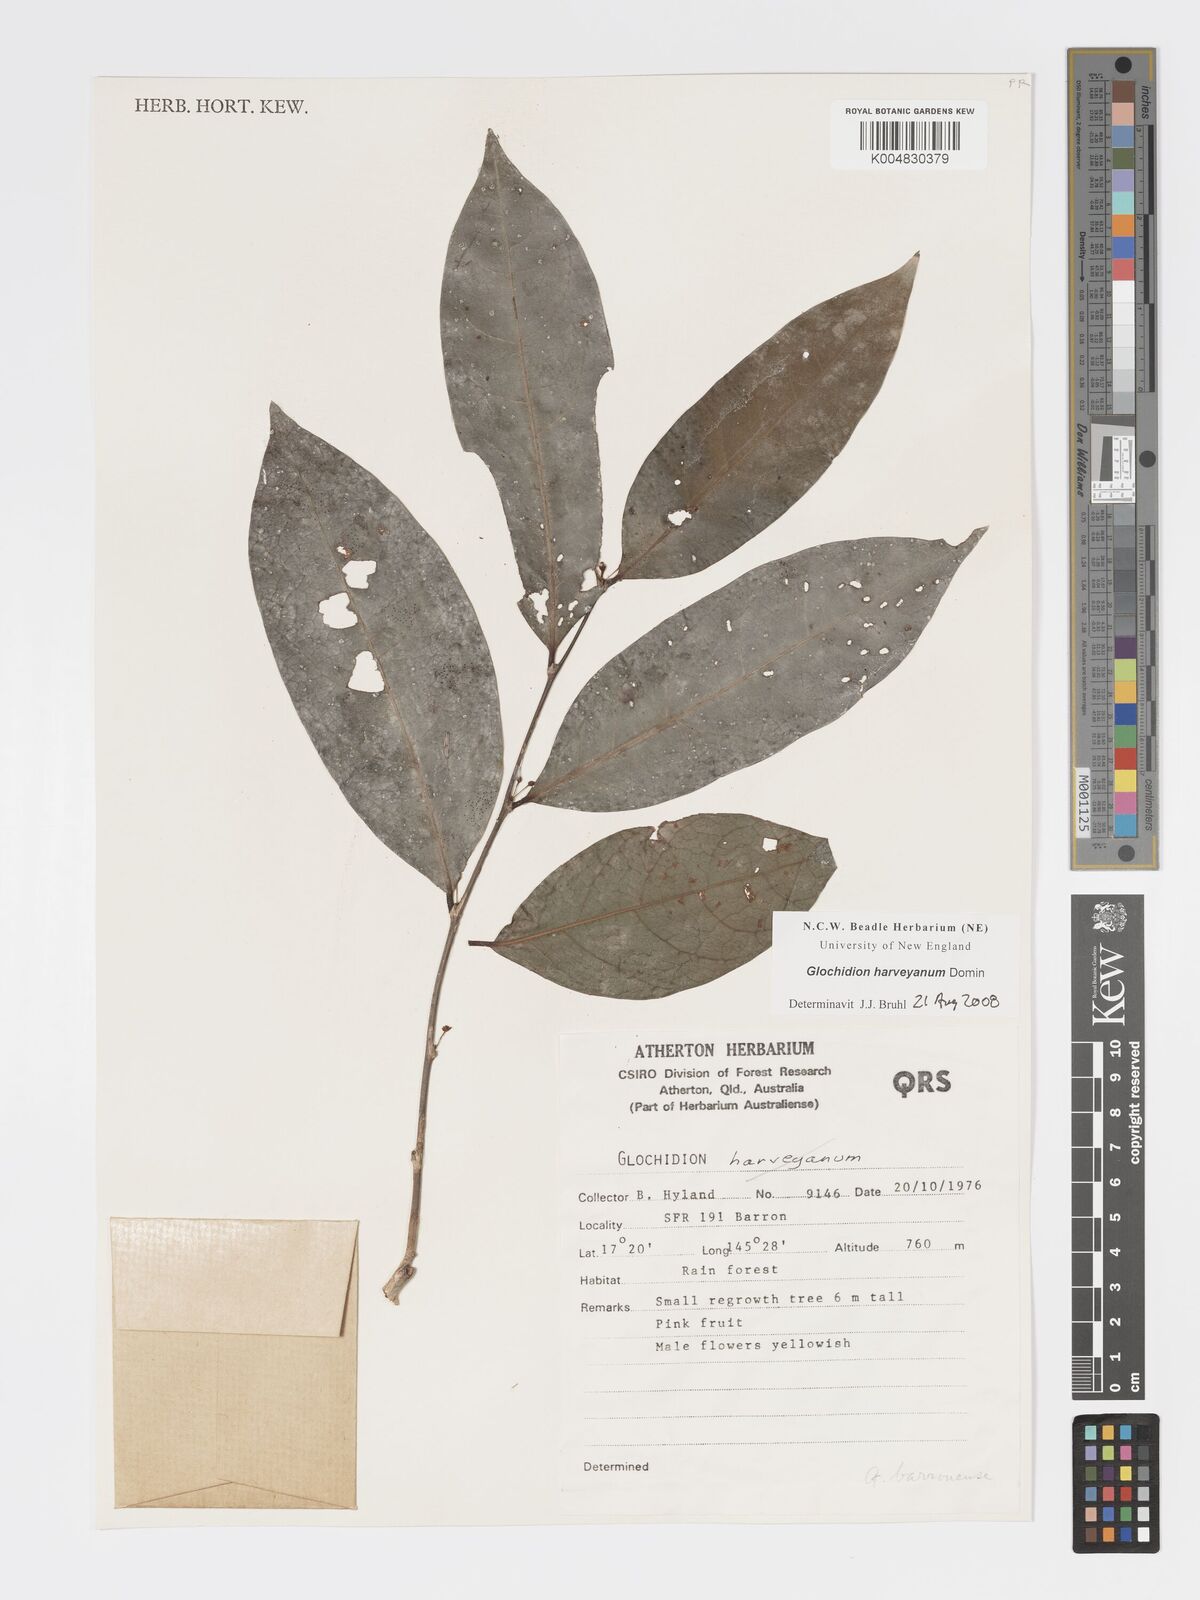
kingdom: Plantae
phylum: Tracheophyta
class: Magnoliopsida
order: Malpighiales
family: Phyllanthaceae
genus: Glochidion
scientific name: Glochidion harveyanum
